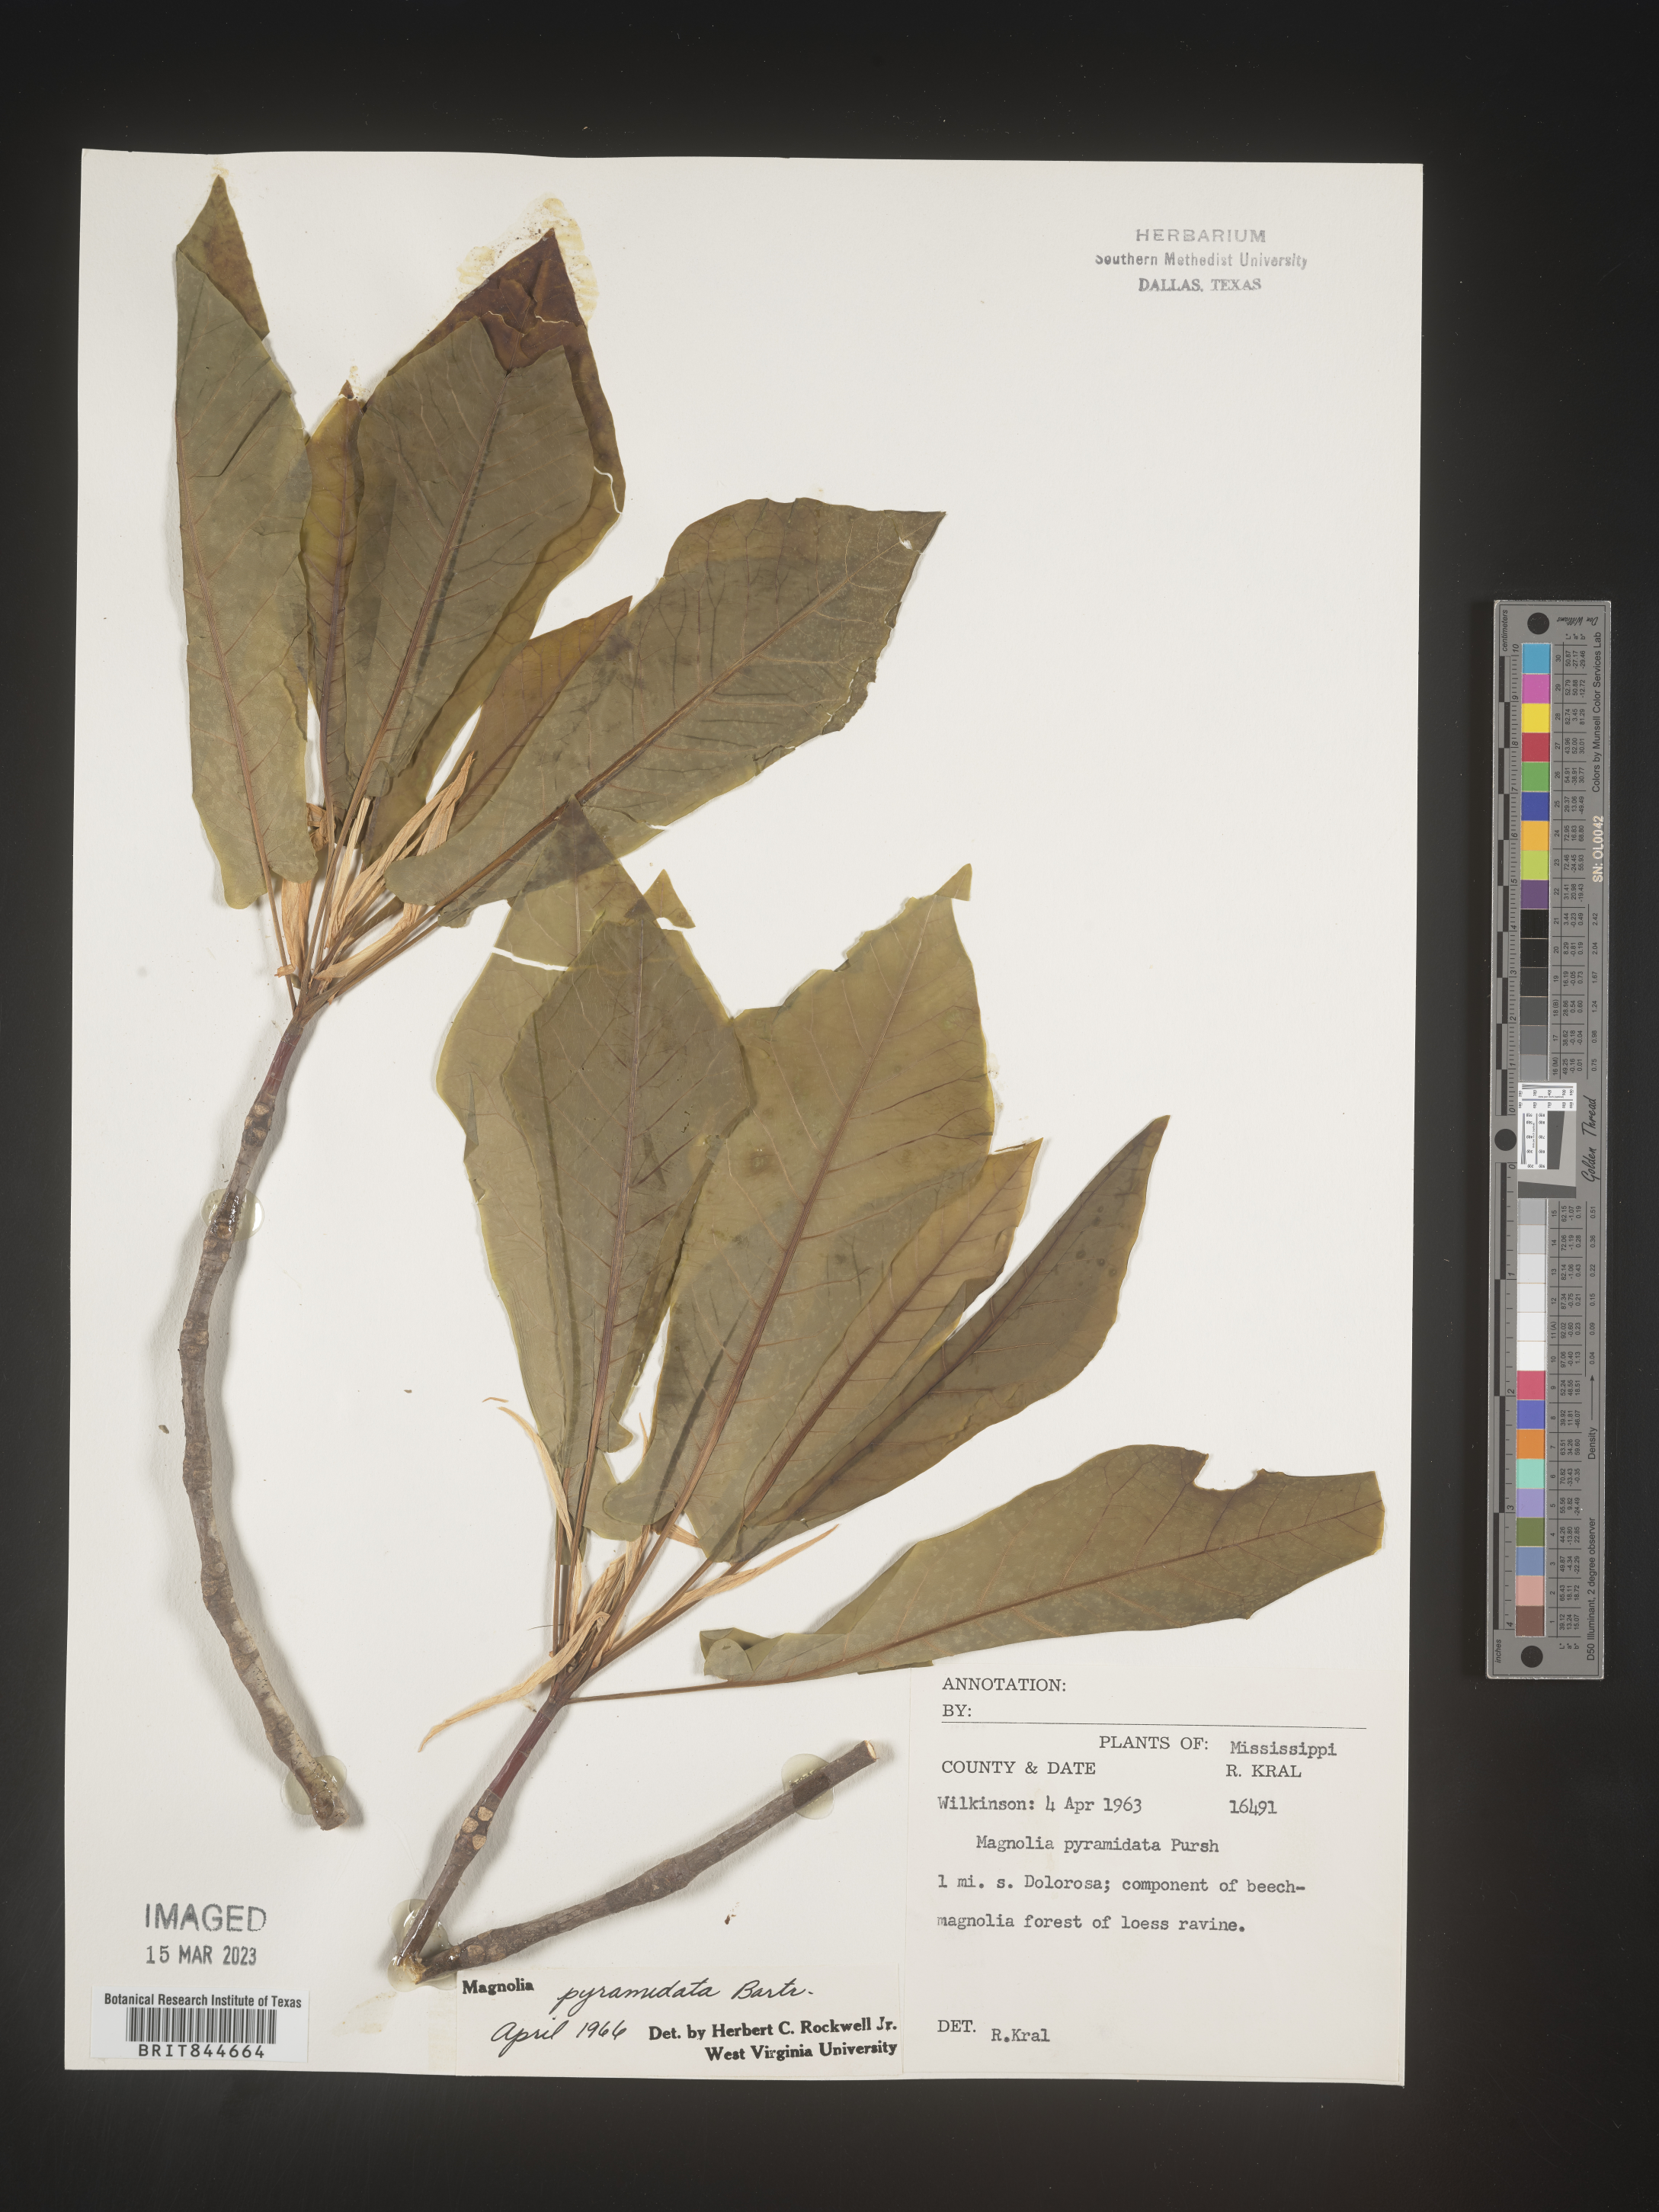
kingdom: Plantae
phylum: Tracheophyta
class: Magnoliopsida
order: Magnoliales
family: Magnoliaceae
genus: Magnolia
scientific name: Magnolia fraseri
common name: Fraser's magnolia
